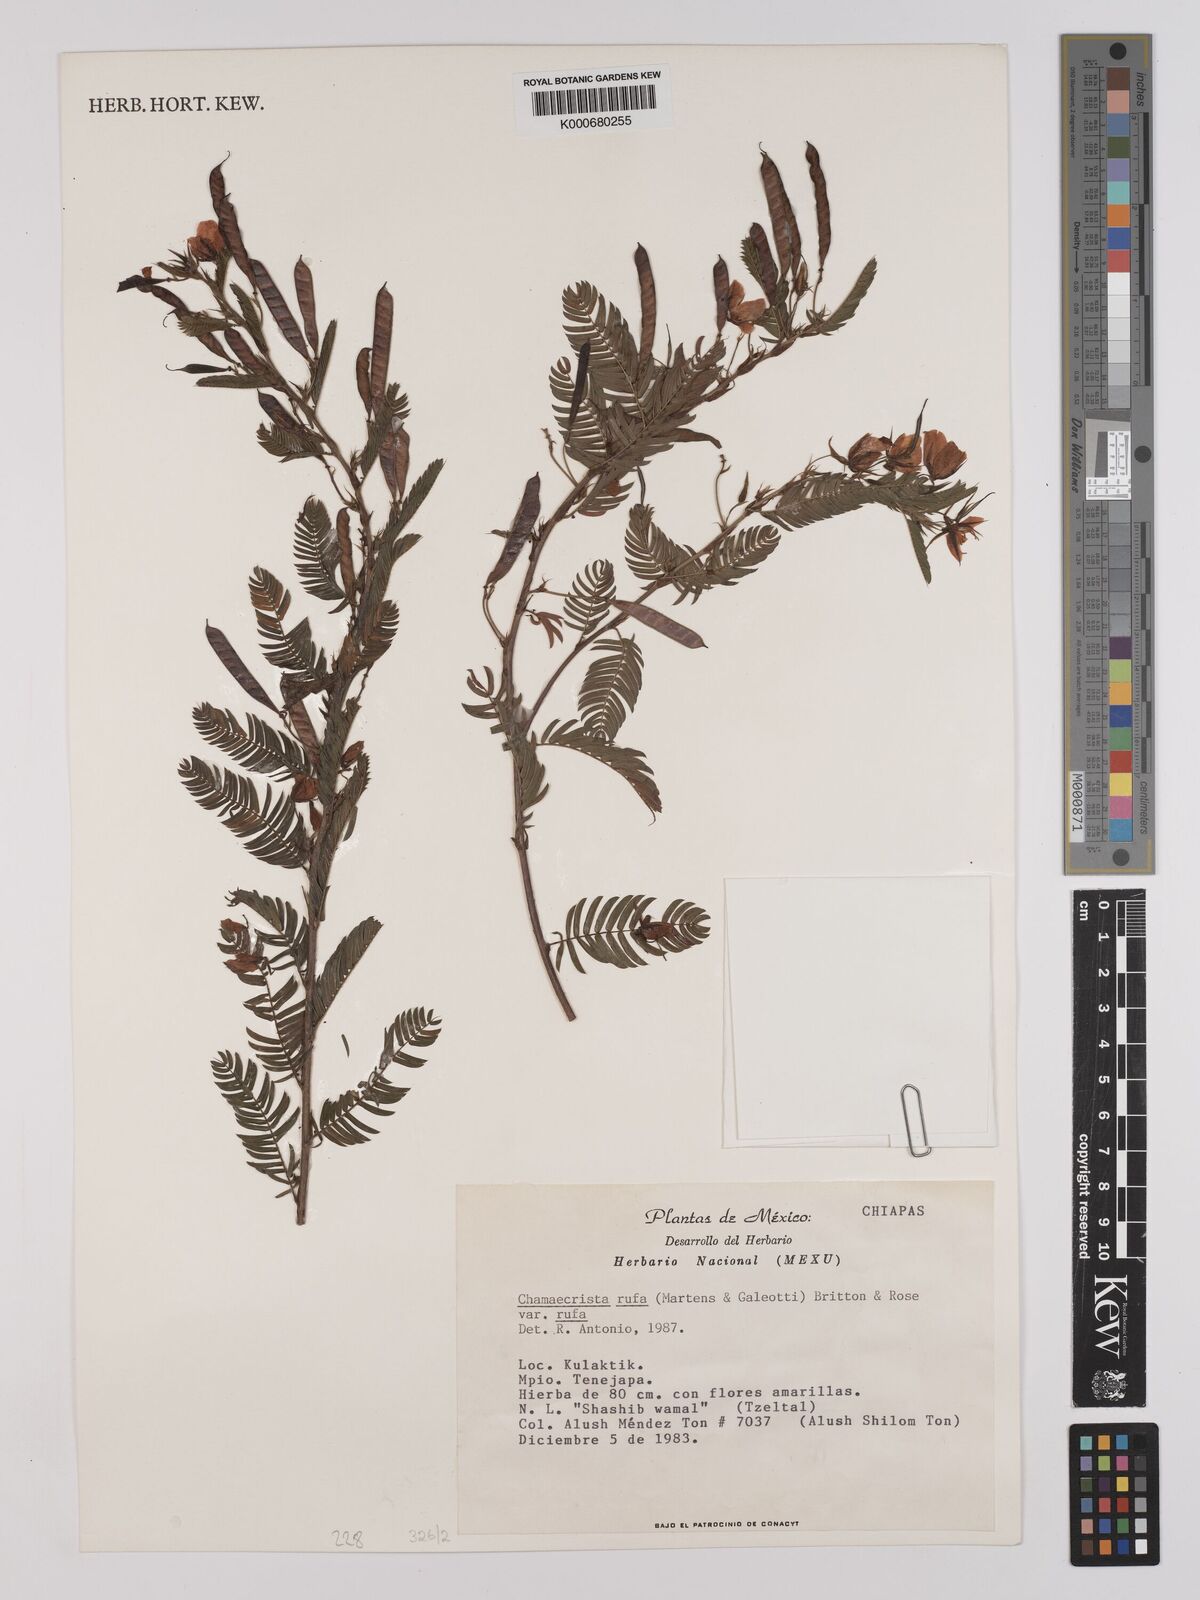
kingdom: Plantae
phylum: Tracheophyta
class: Magnoliopsida
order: Fabales
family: Fabaceae
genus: Chamaecrista
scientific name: Chamaecrista rufa
